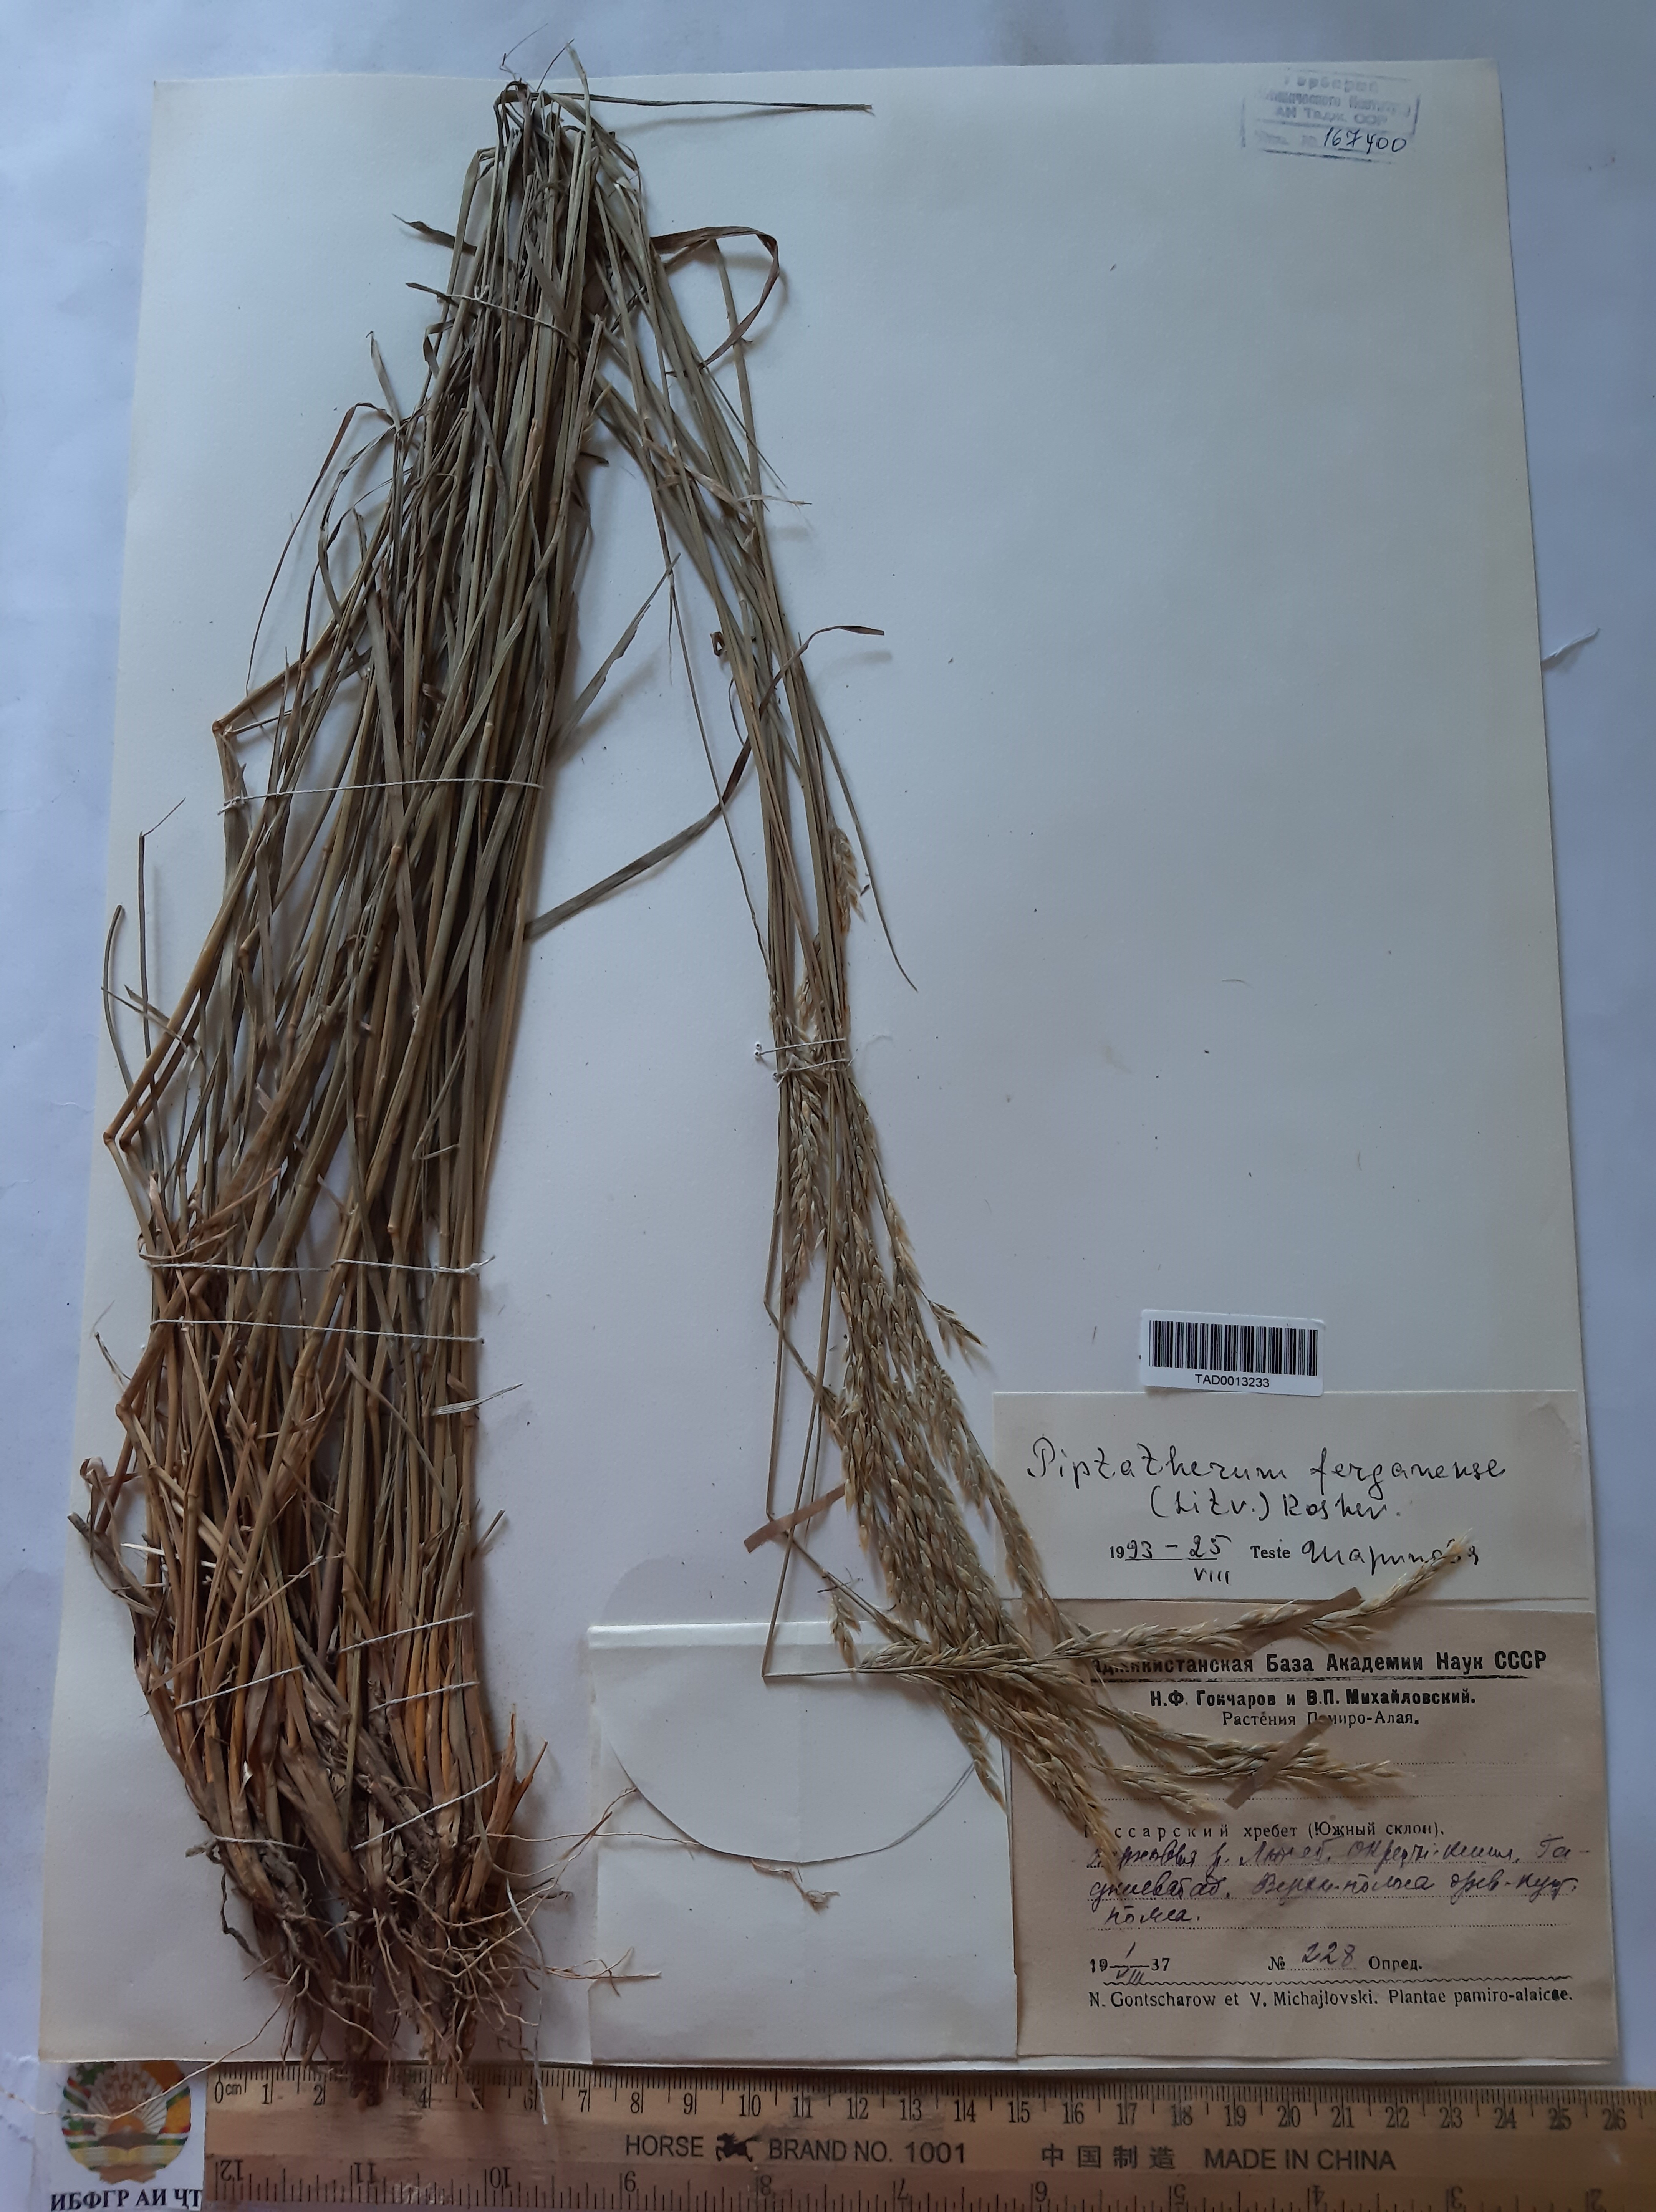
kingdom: Plantae
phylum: Tracheophyta
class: Liliopsida
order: Poales
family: Poaceae
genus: Piptatherum
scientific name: Piptatherum ferganense
